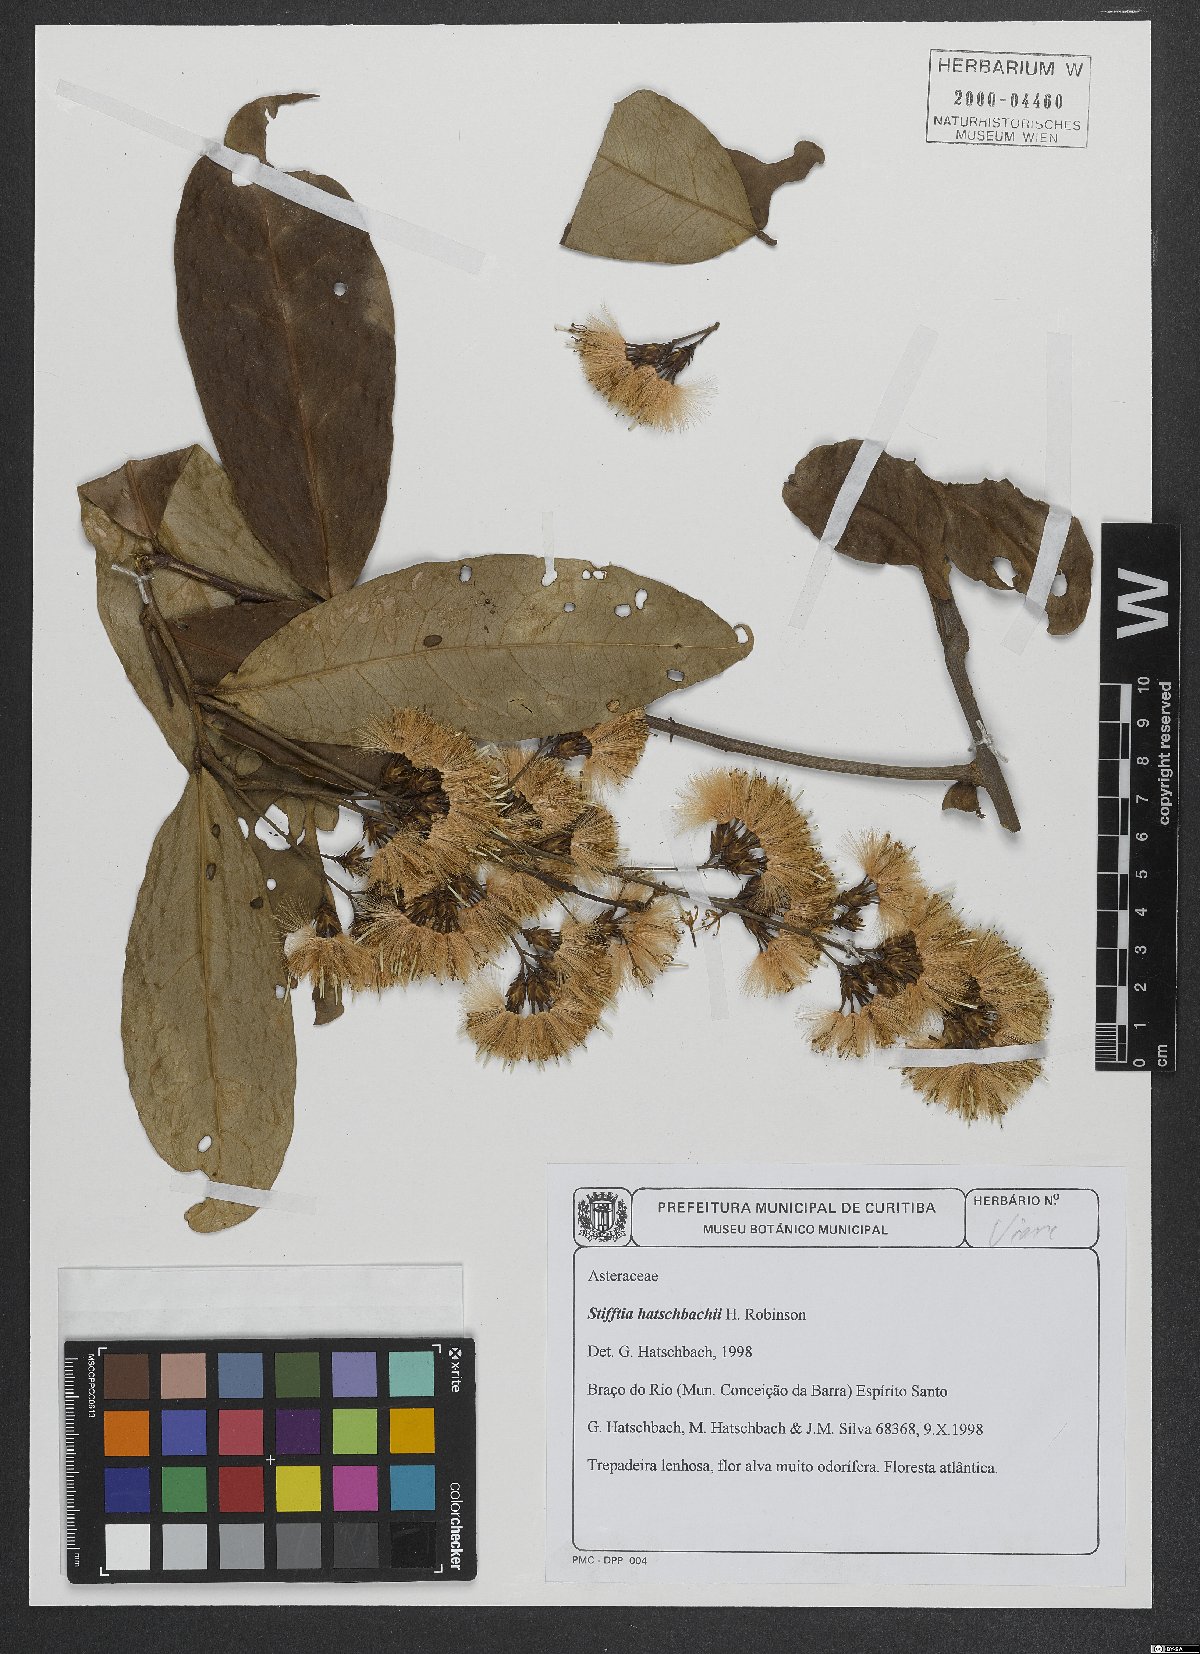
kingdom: Plantae
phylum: Tracheophyta
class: Magnoliopsida
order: Asterales
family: Asteraceae
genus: Stifftia
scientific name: Stifftia hatschbachii
